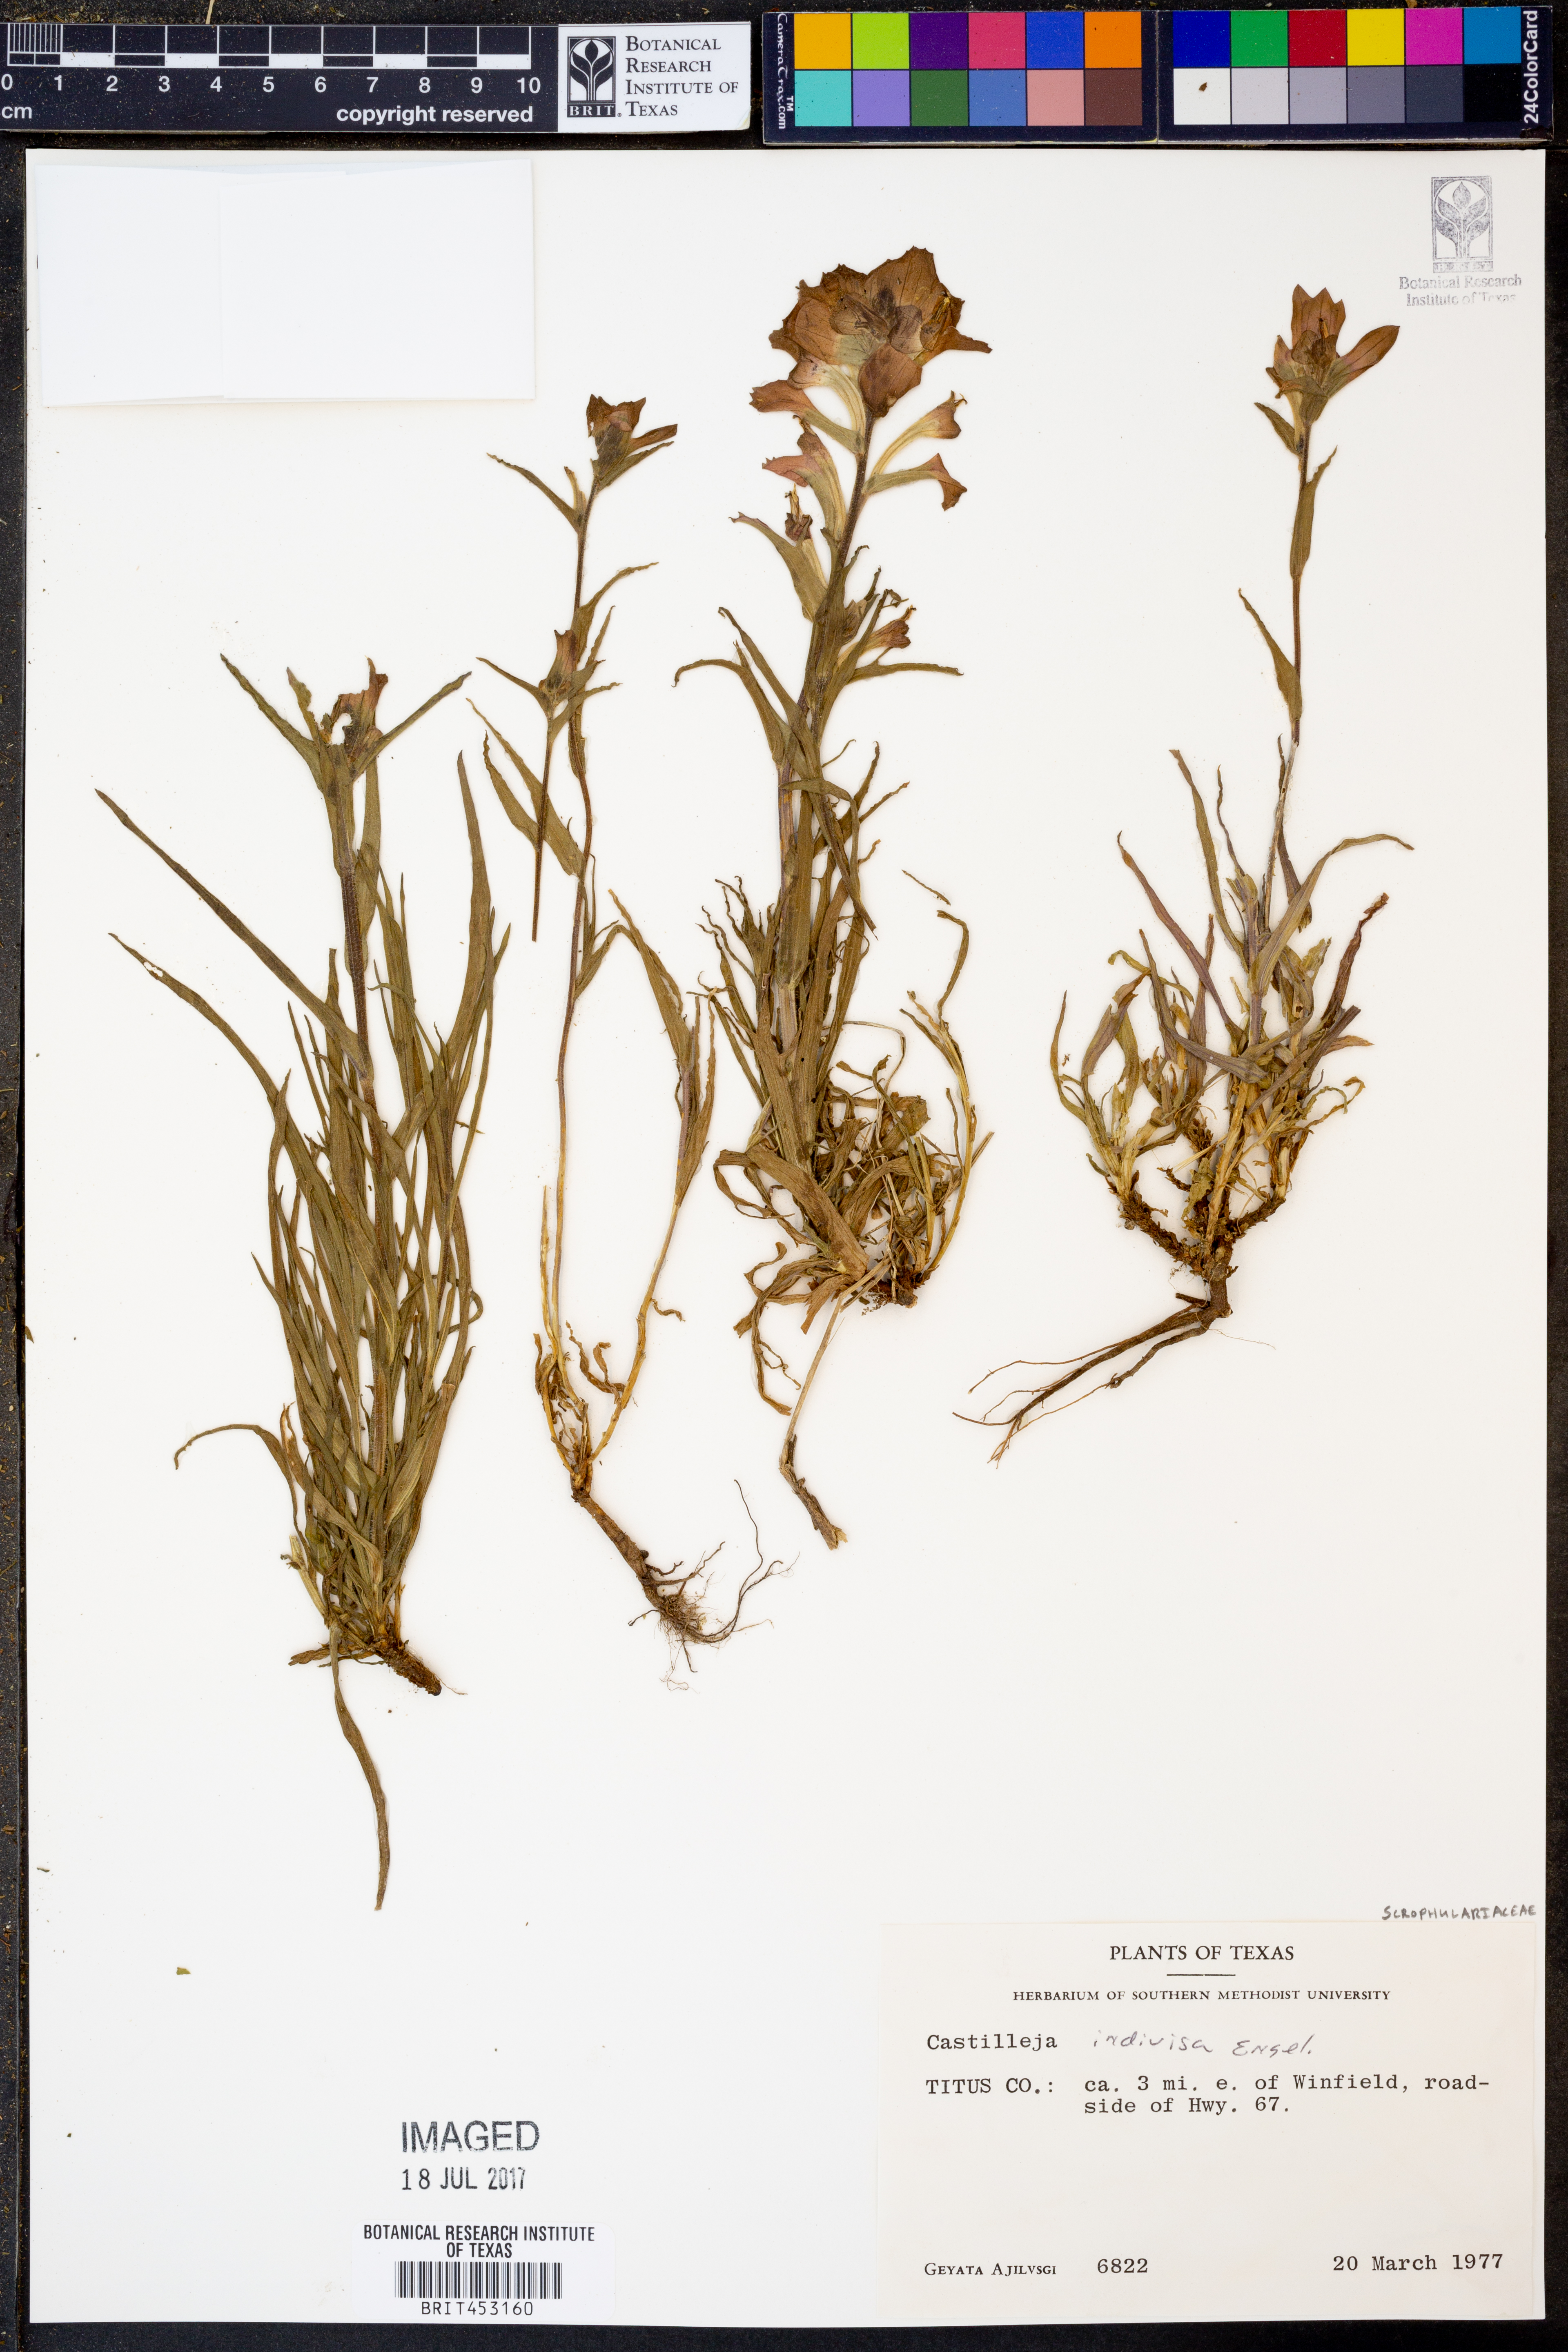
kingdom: Plantae
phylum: Tracheophyta
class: Magnoliopsida
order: Lamiales
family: Orobanchaceae
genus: Castilleja
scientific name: Castilleja indivisa
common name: Texas paintbrush
